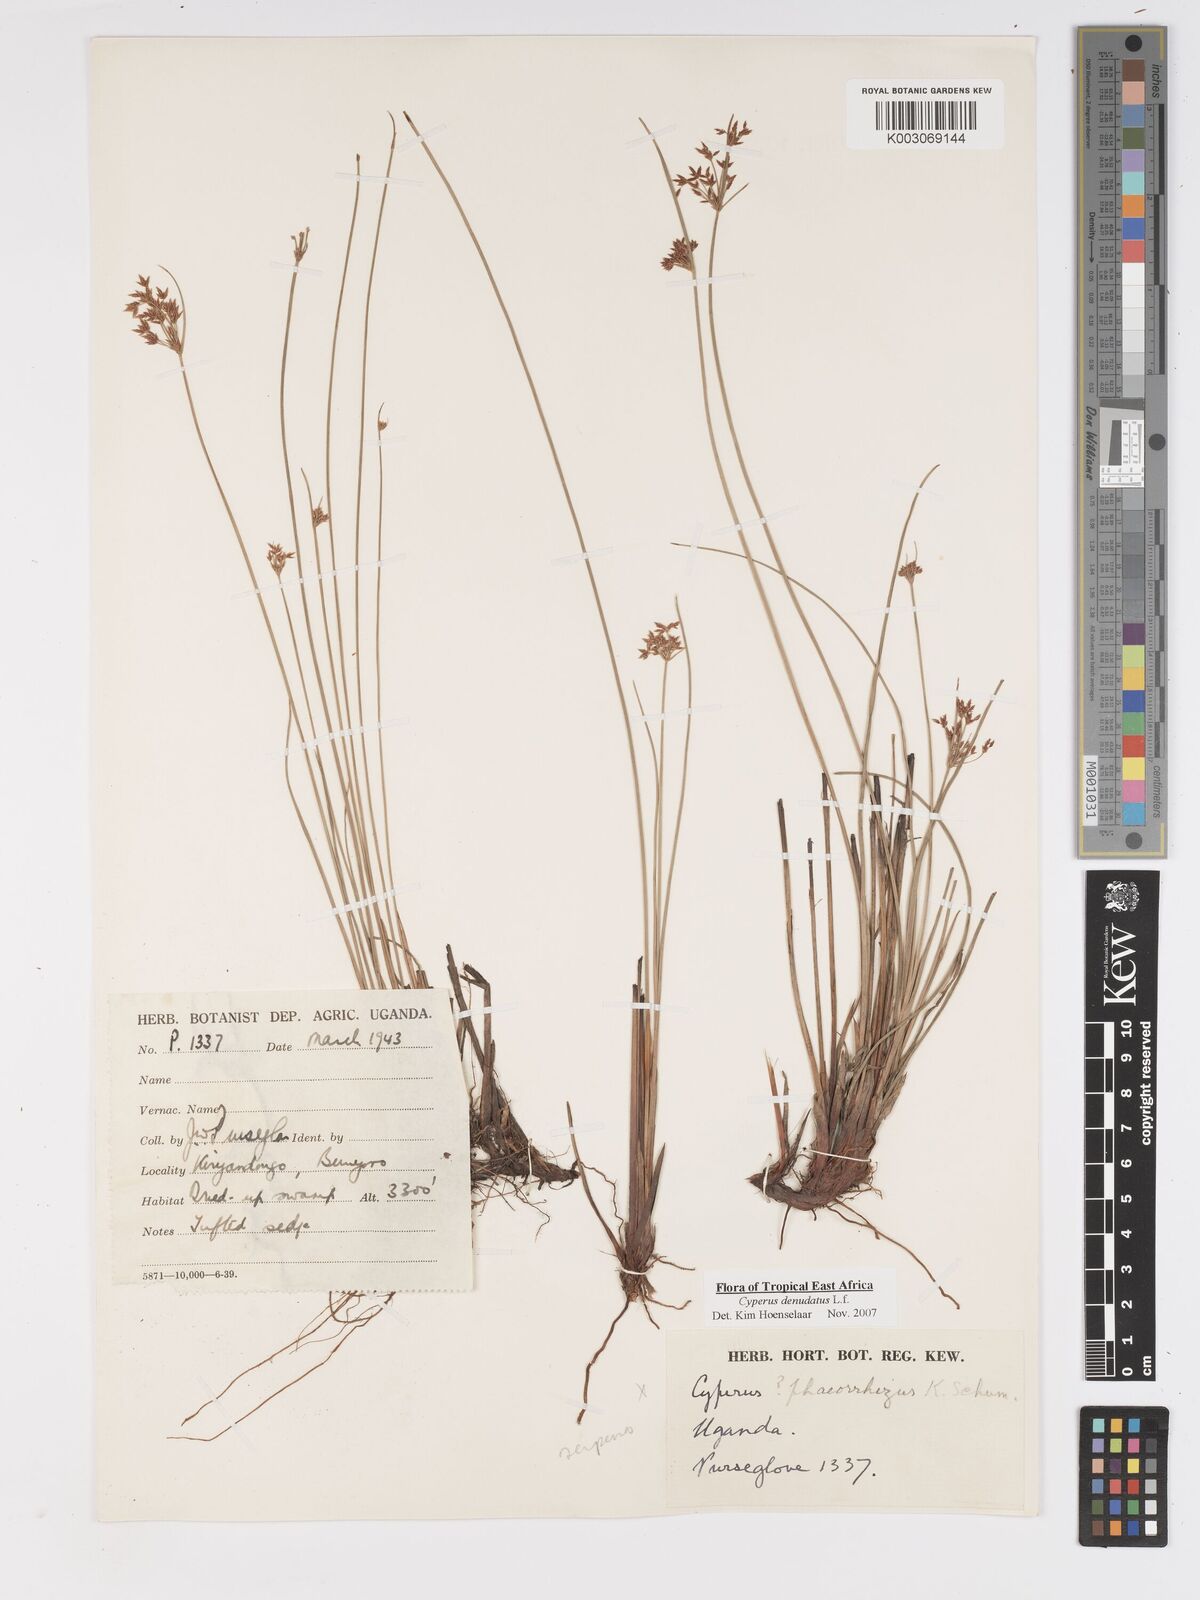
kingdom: Plantae
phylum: Tracheophyta
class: Liliopsida
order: Poales
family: Cyperaceae
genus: Cyperus
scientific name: Cyperus denudatus
